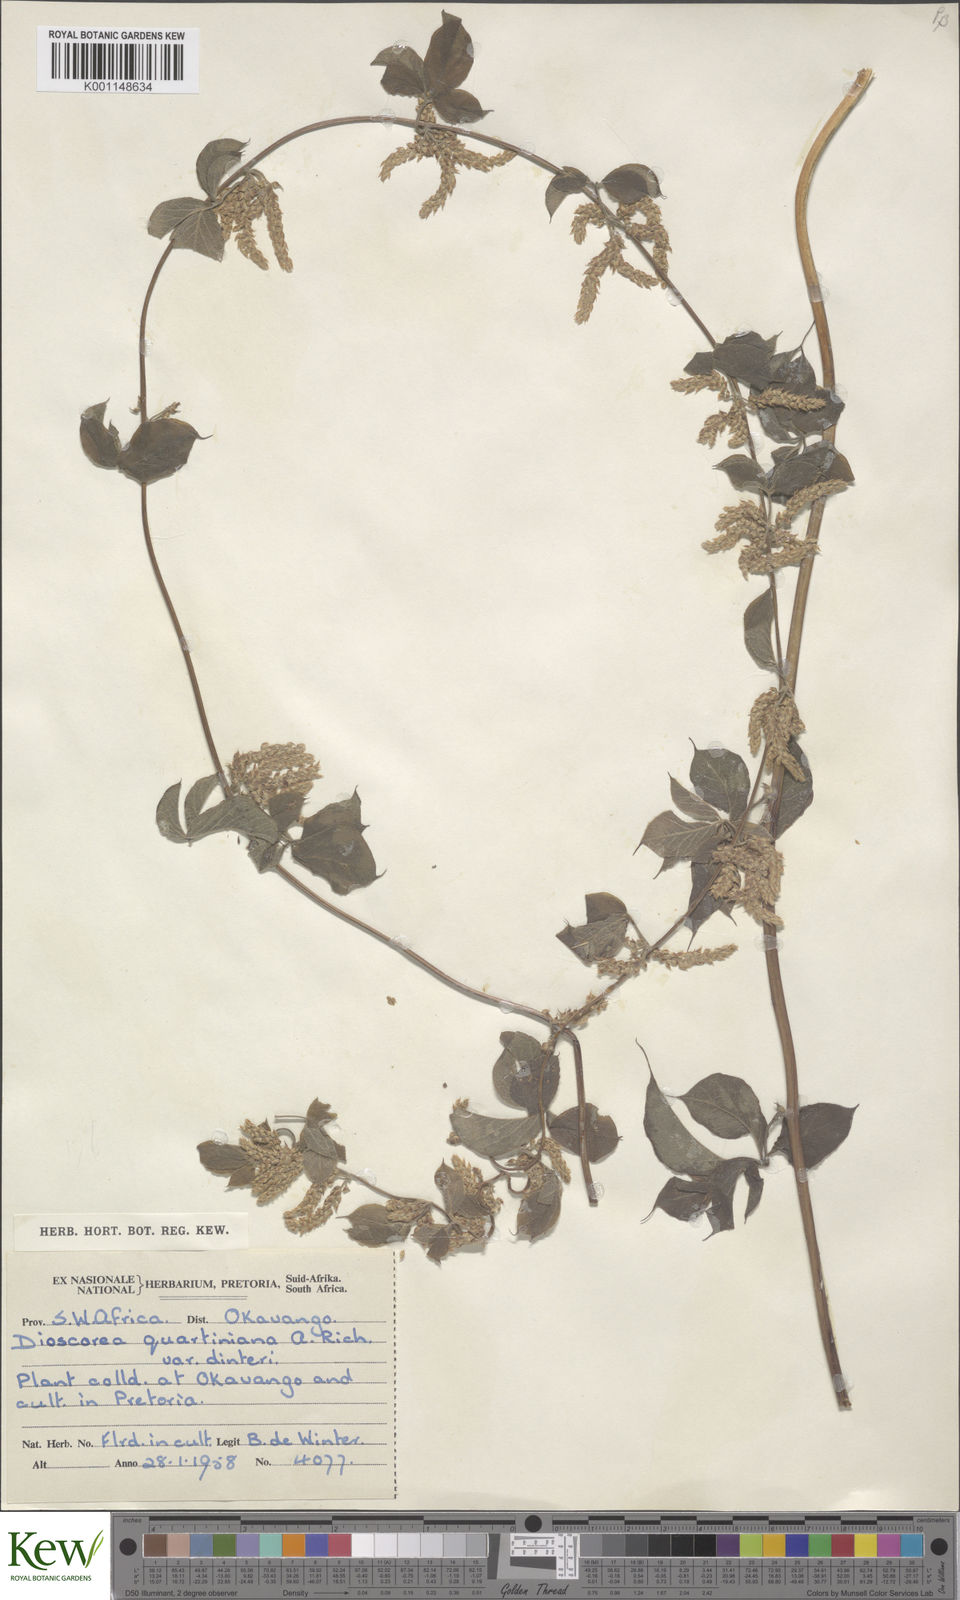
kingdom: Plantae
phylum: Tracheophyta
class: Liliopsida
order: Dioscoreales
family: Dioscoreaceae
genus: Dioscorea
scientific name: Dioscorea quartiniana
